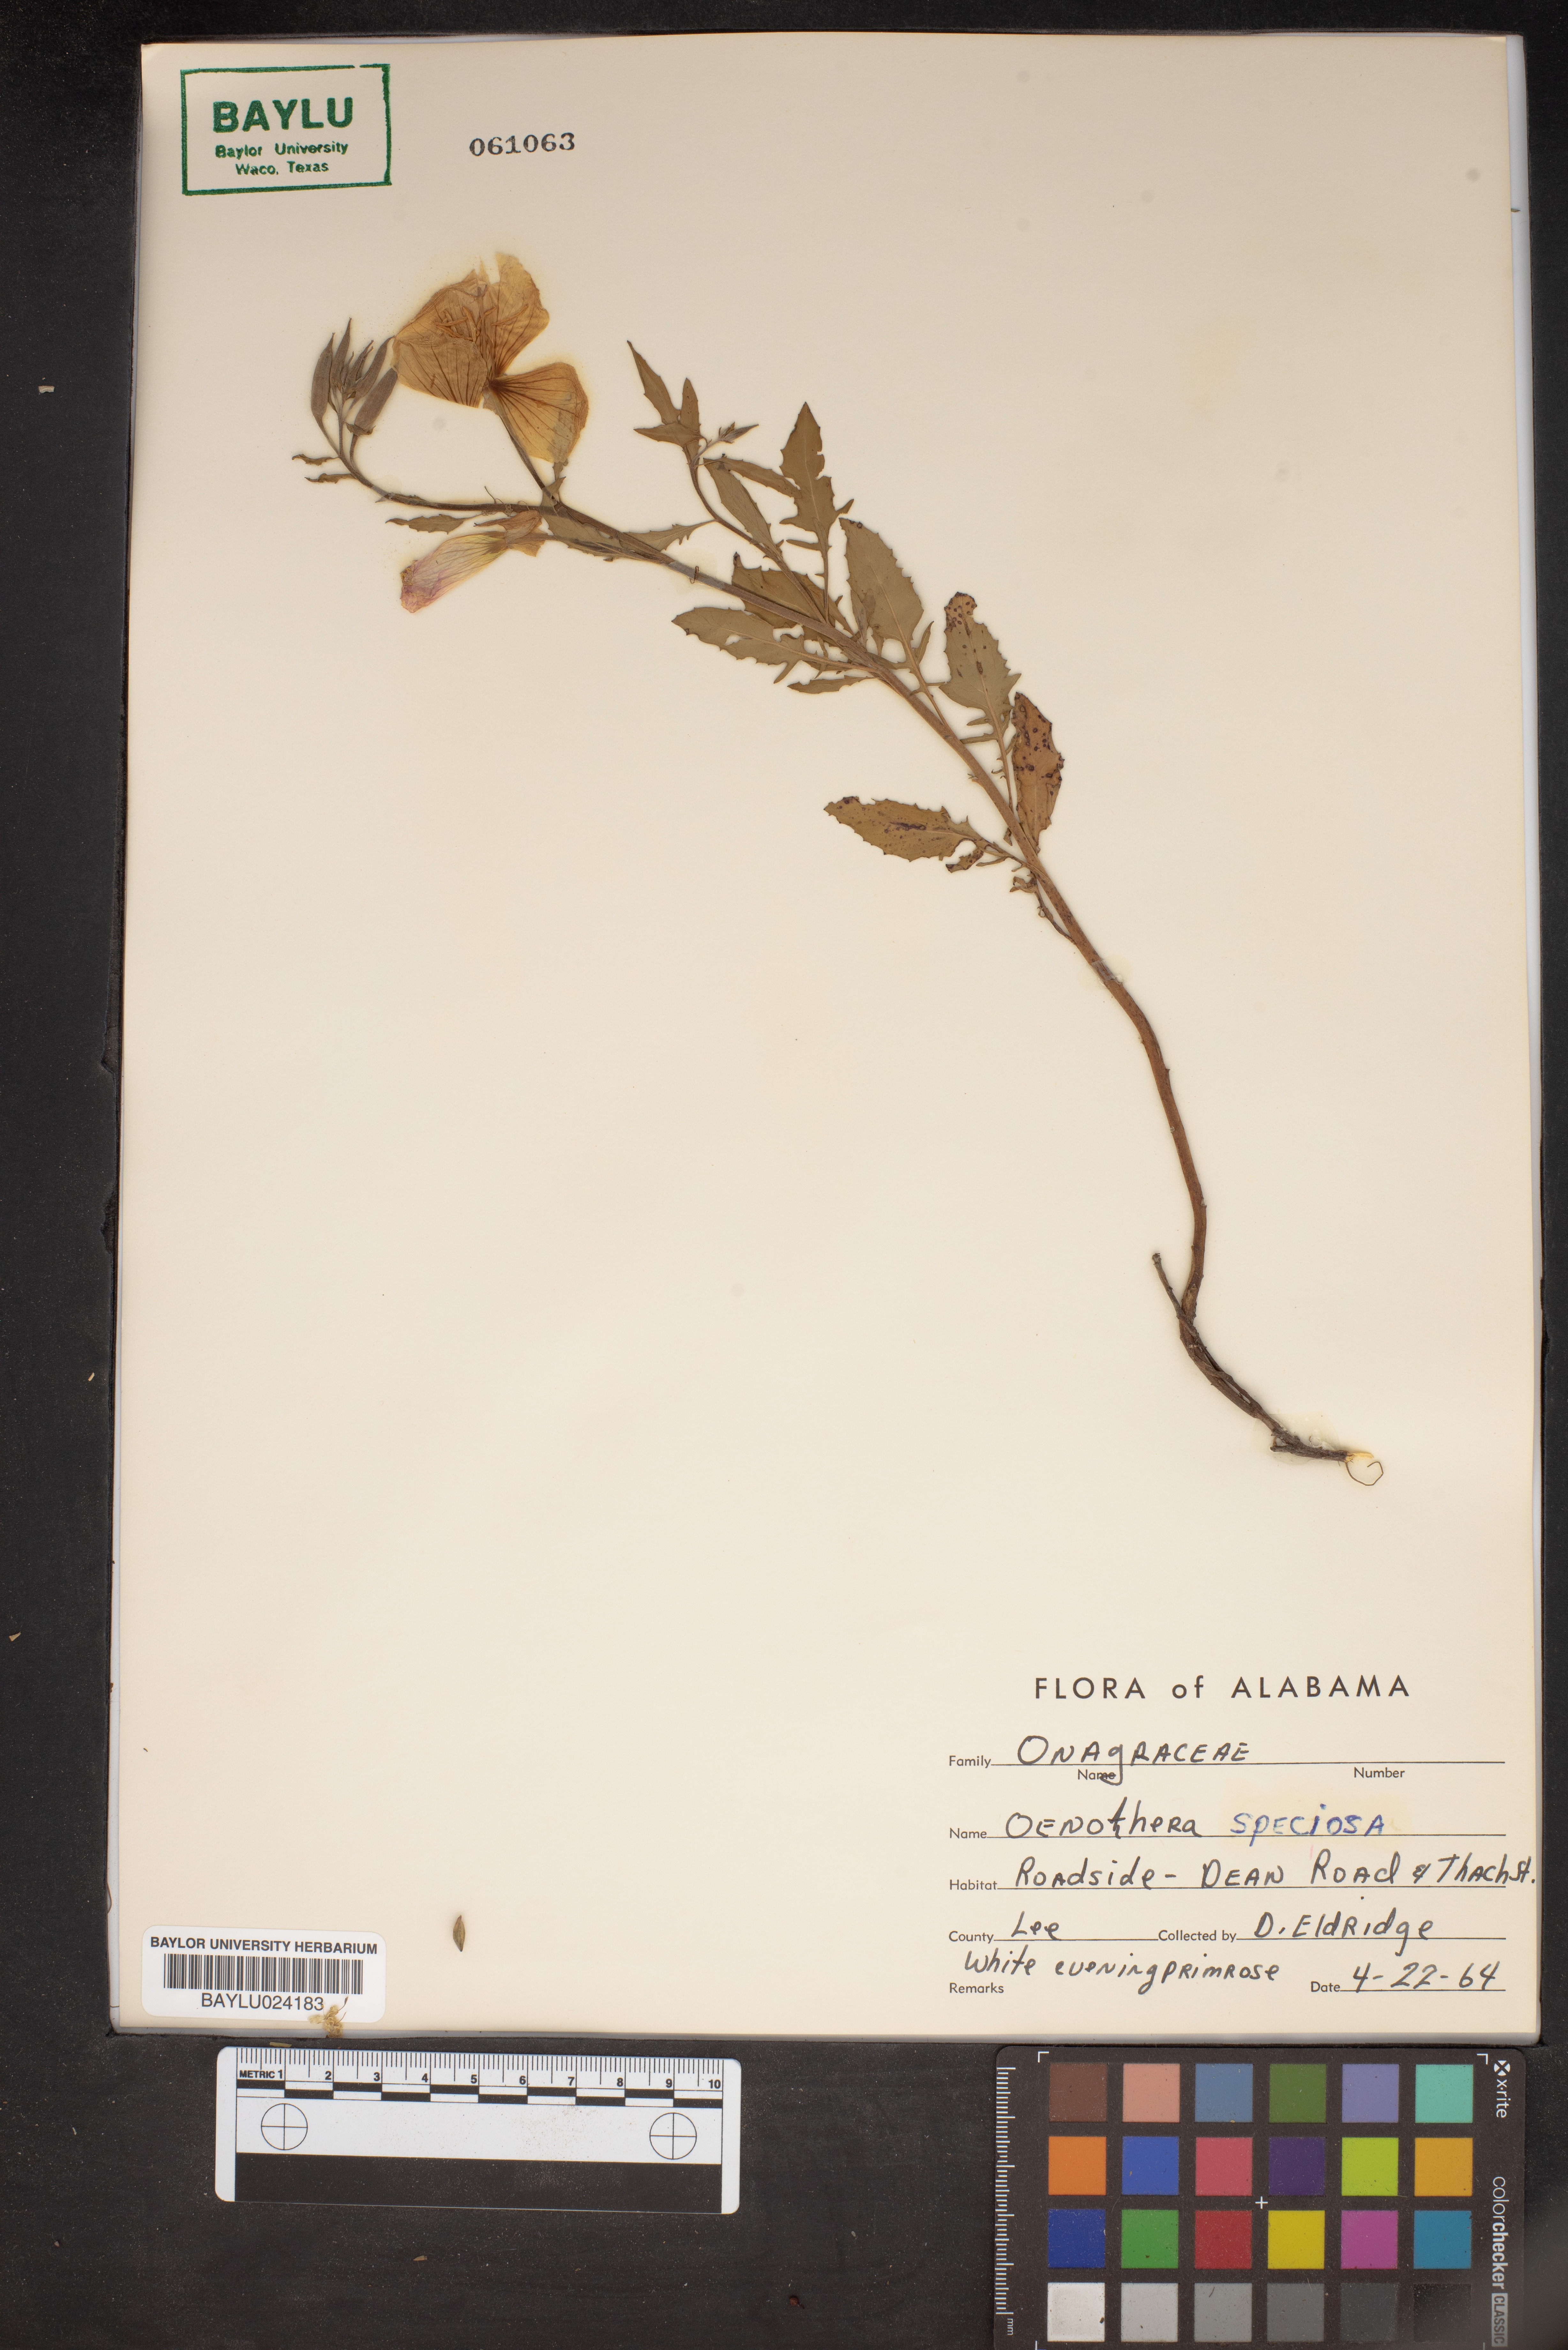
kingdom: Plantae
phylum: Tracheophyta
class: Magnoliopsida
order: Myrtales
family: Onagraceae
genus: Oenothera
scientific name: Oenothera speciosa
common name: White evening-primrose
